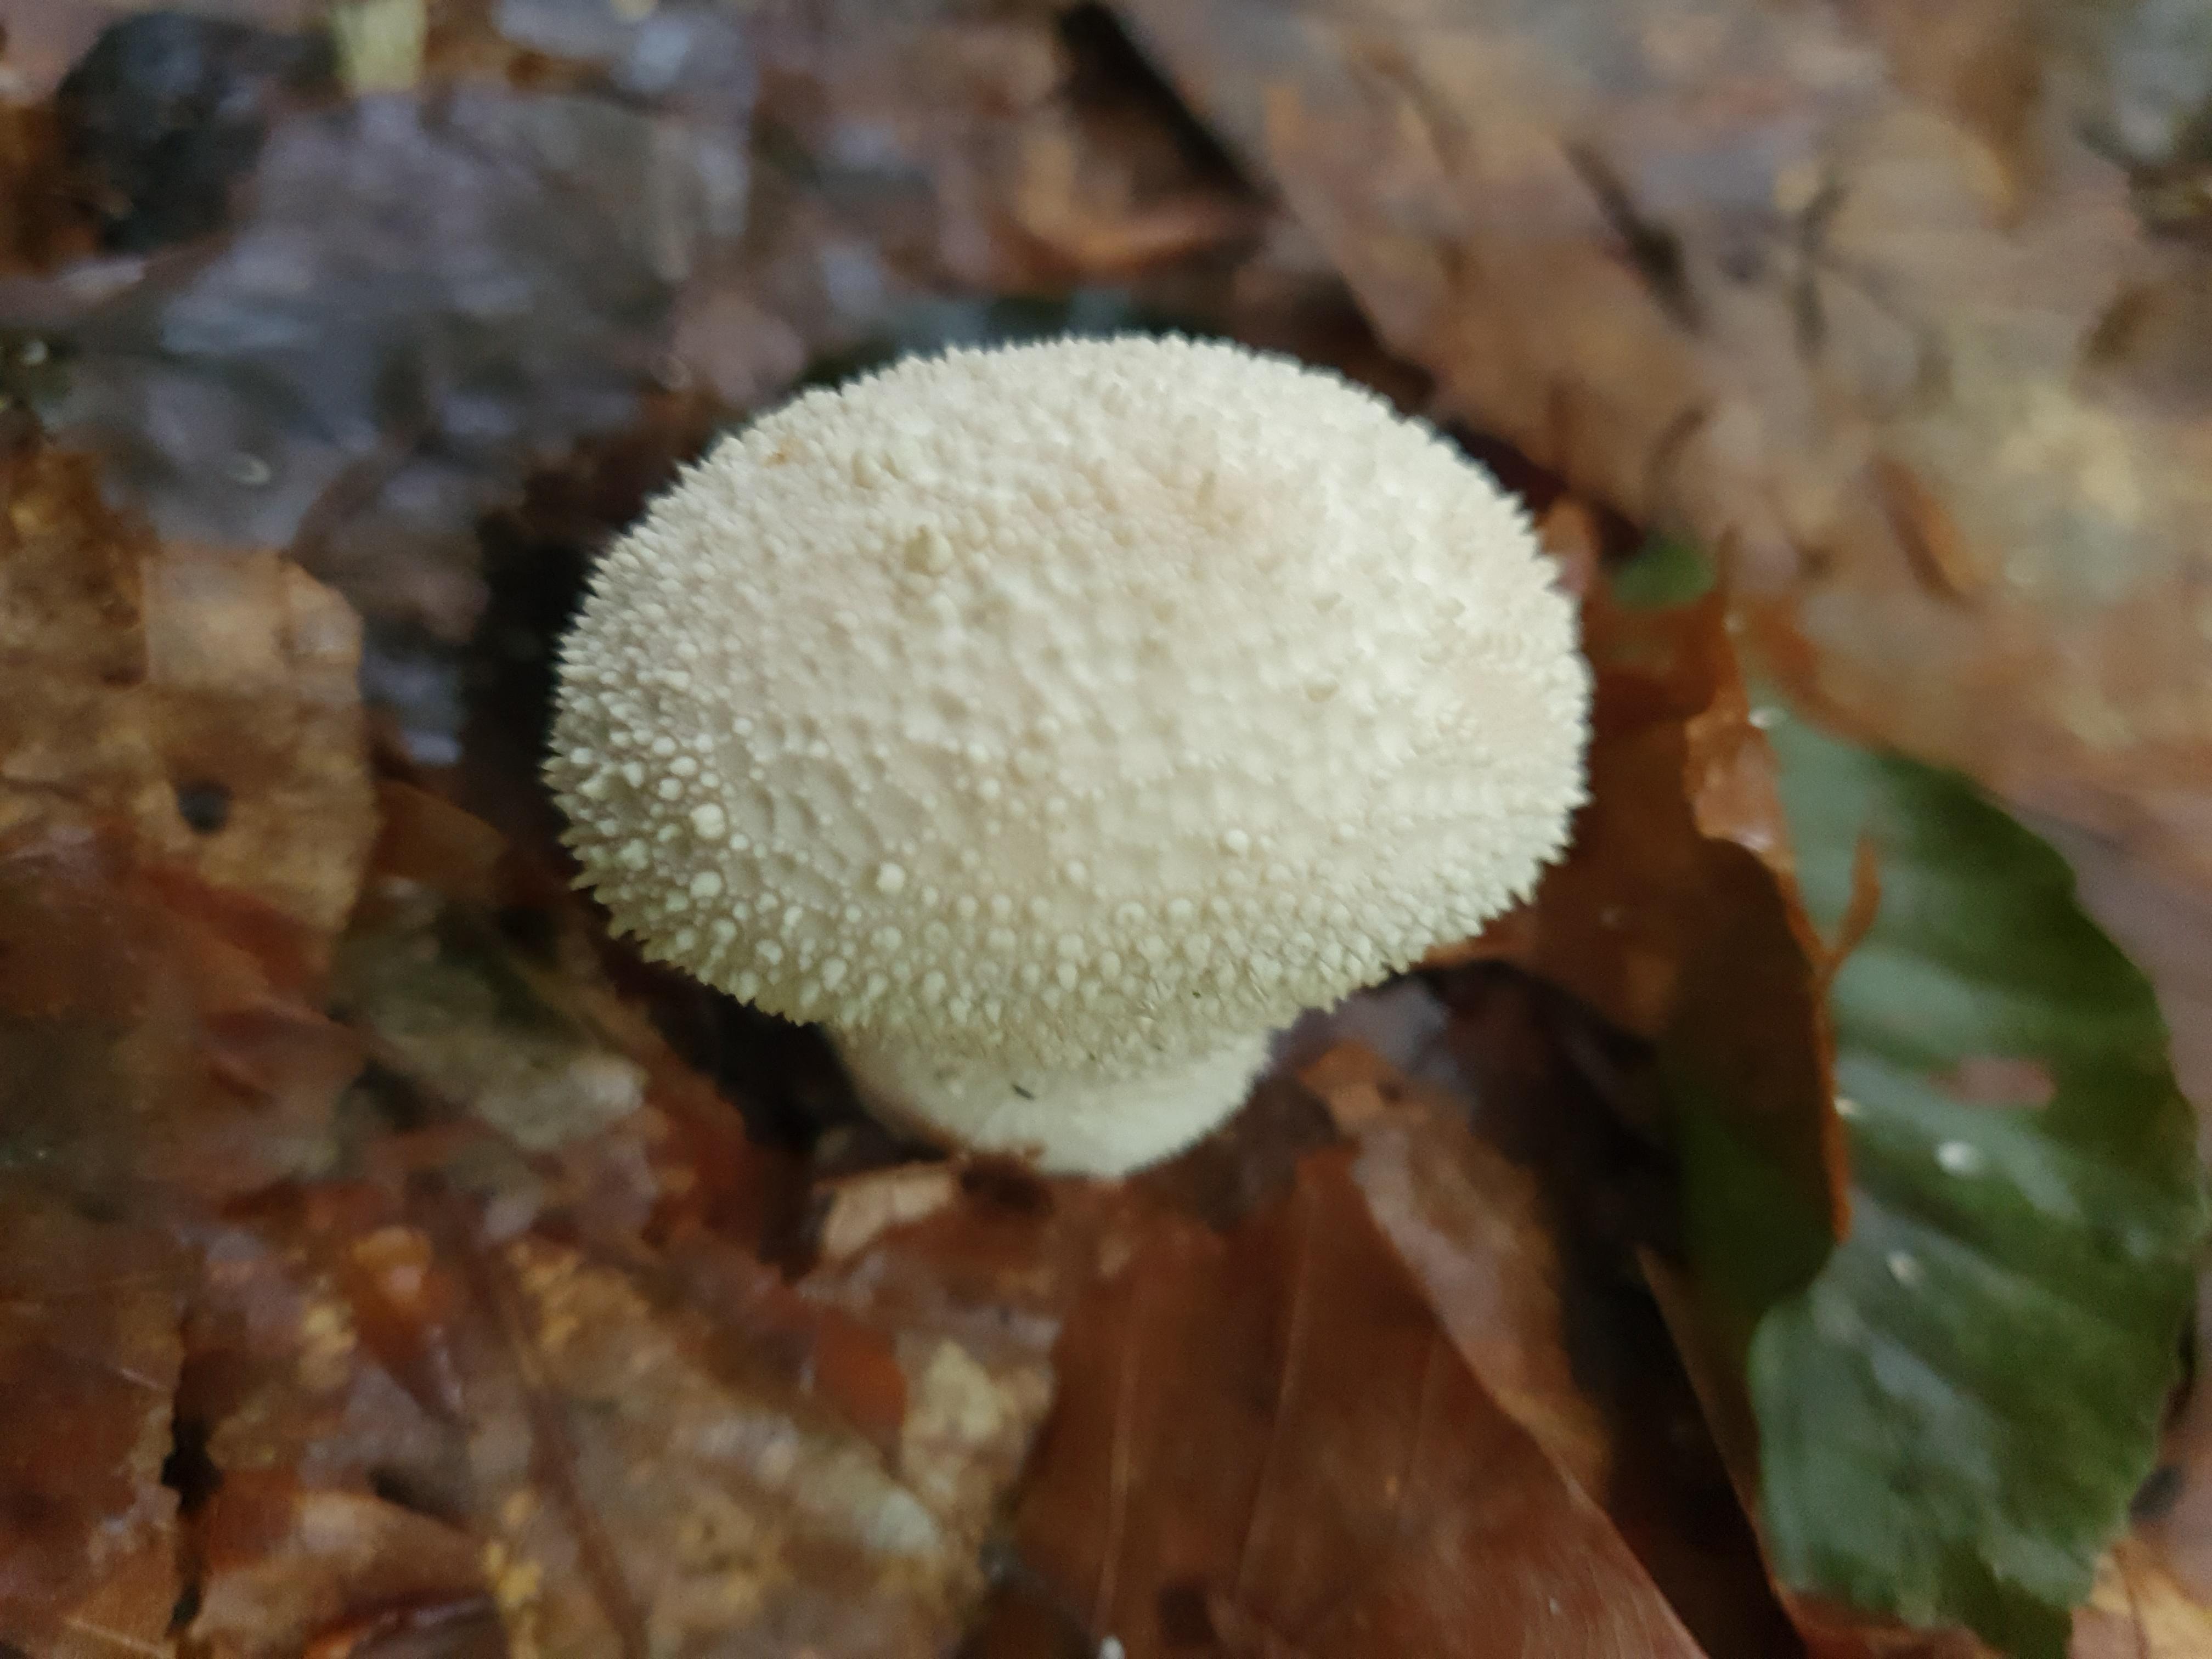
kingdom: Fungi
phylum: Basidiomycota
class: Agaricomycetes
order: Agaricales
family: Lycoperdaceae
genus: Lycoperdon
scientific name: Lycoperdon perlatum
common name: krystal-støvbold
